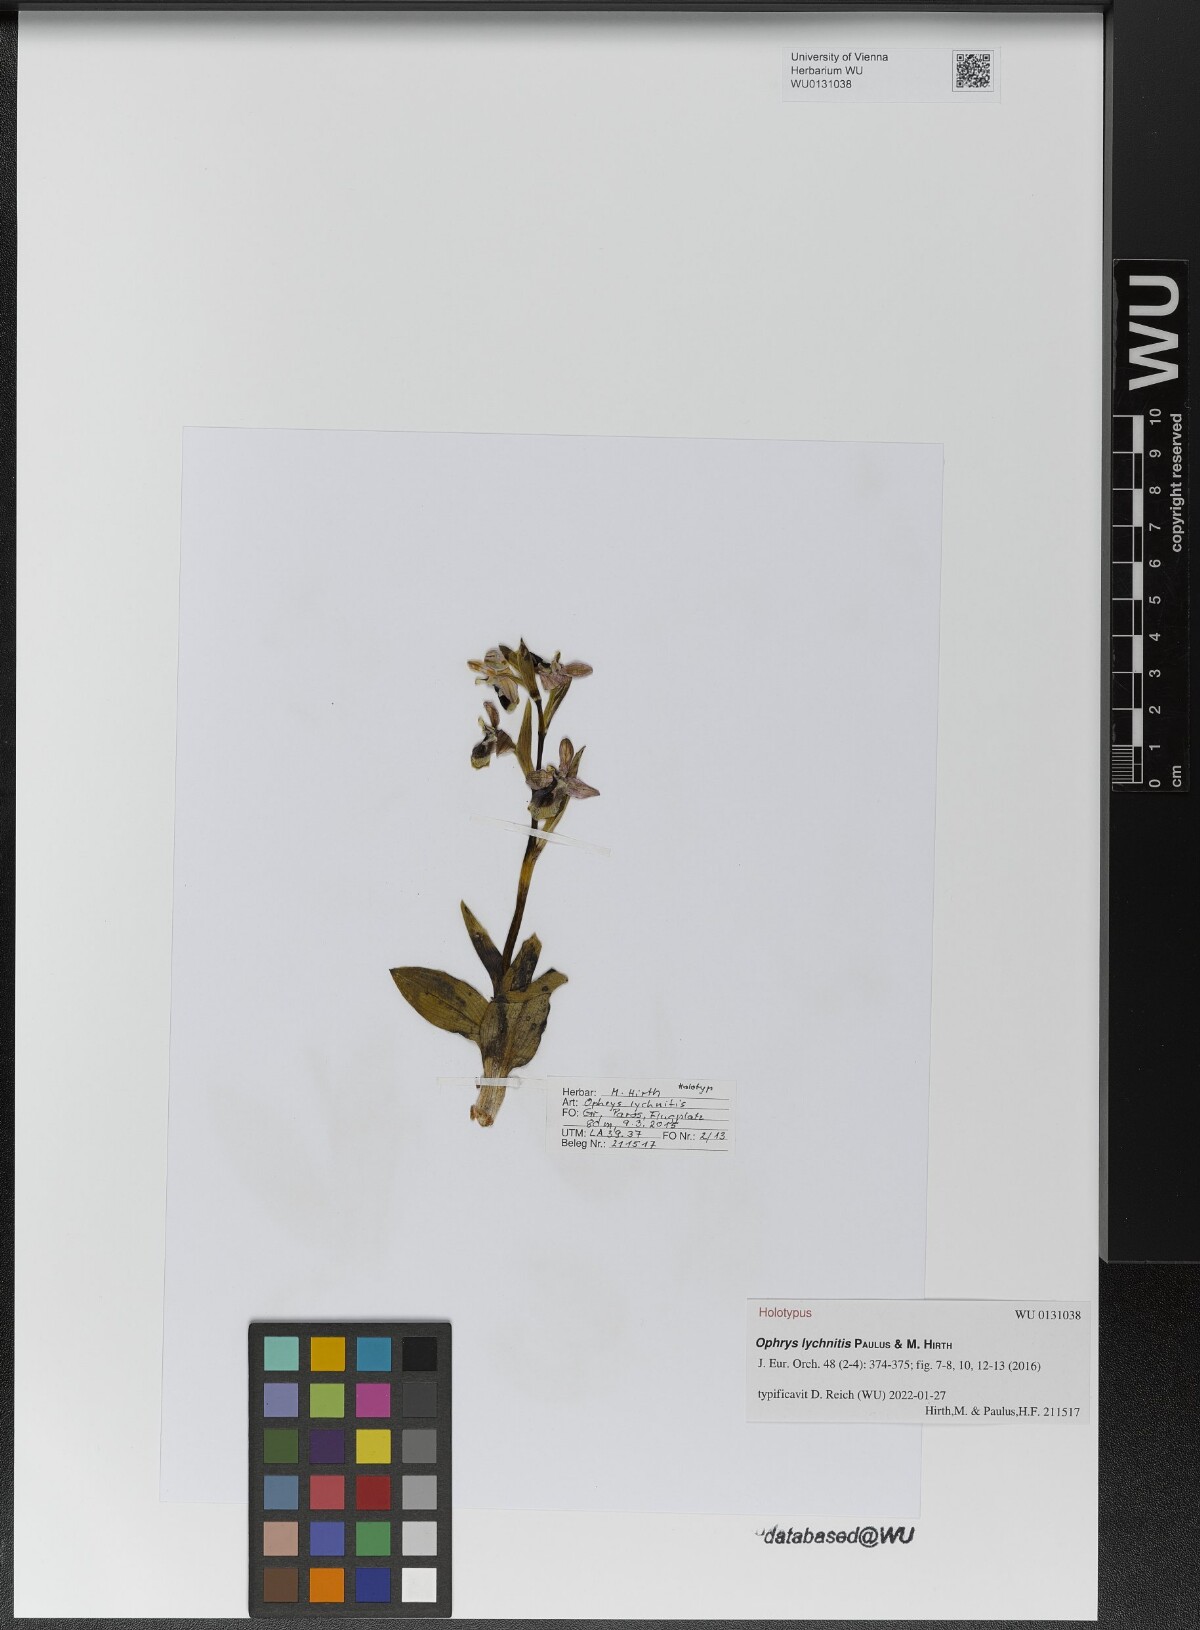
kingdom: Plantae
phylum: Tracheophyta
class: Liliopsida
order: Asparagales
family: Orchidaceae
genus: Ophrys
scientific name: Ophrys tenthredinifera
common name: Sawfly orchid
